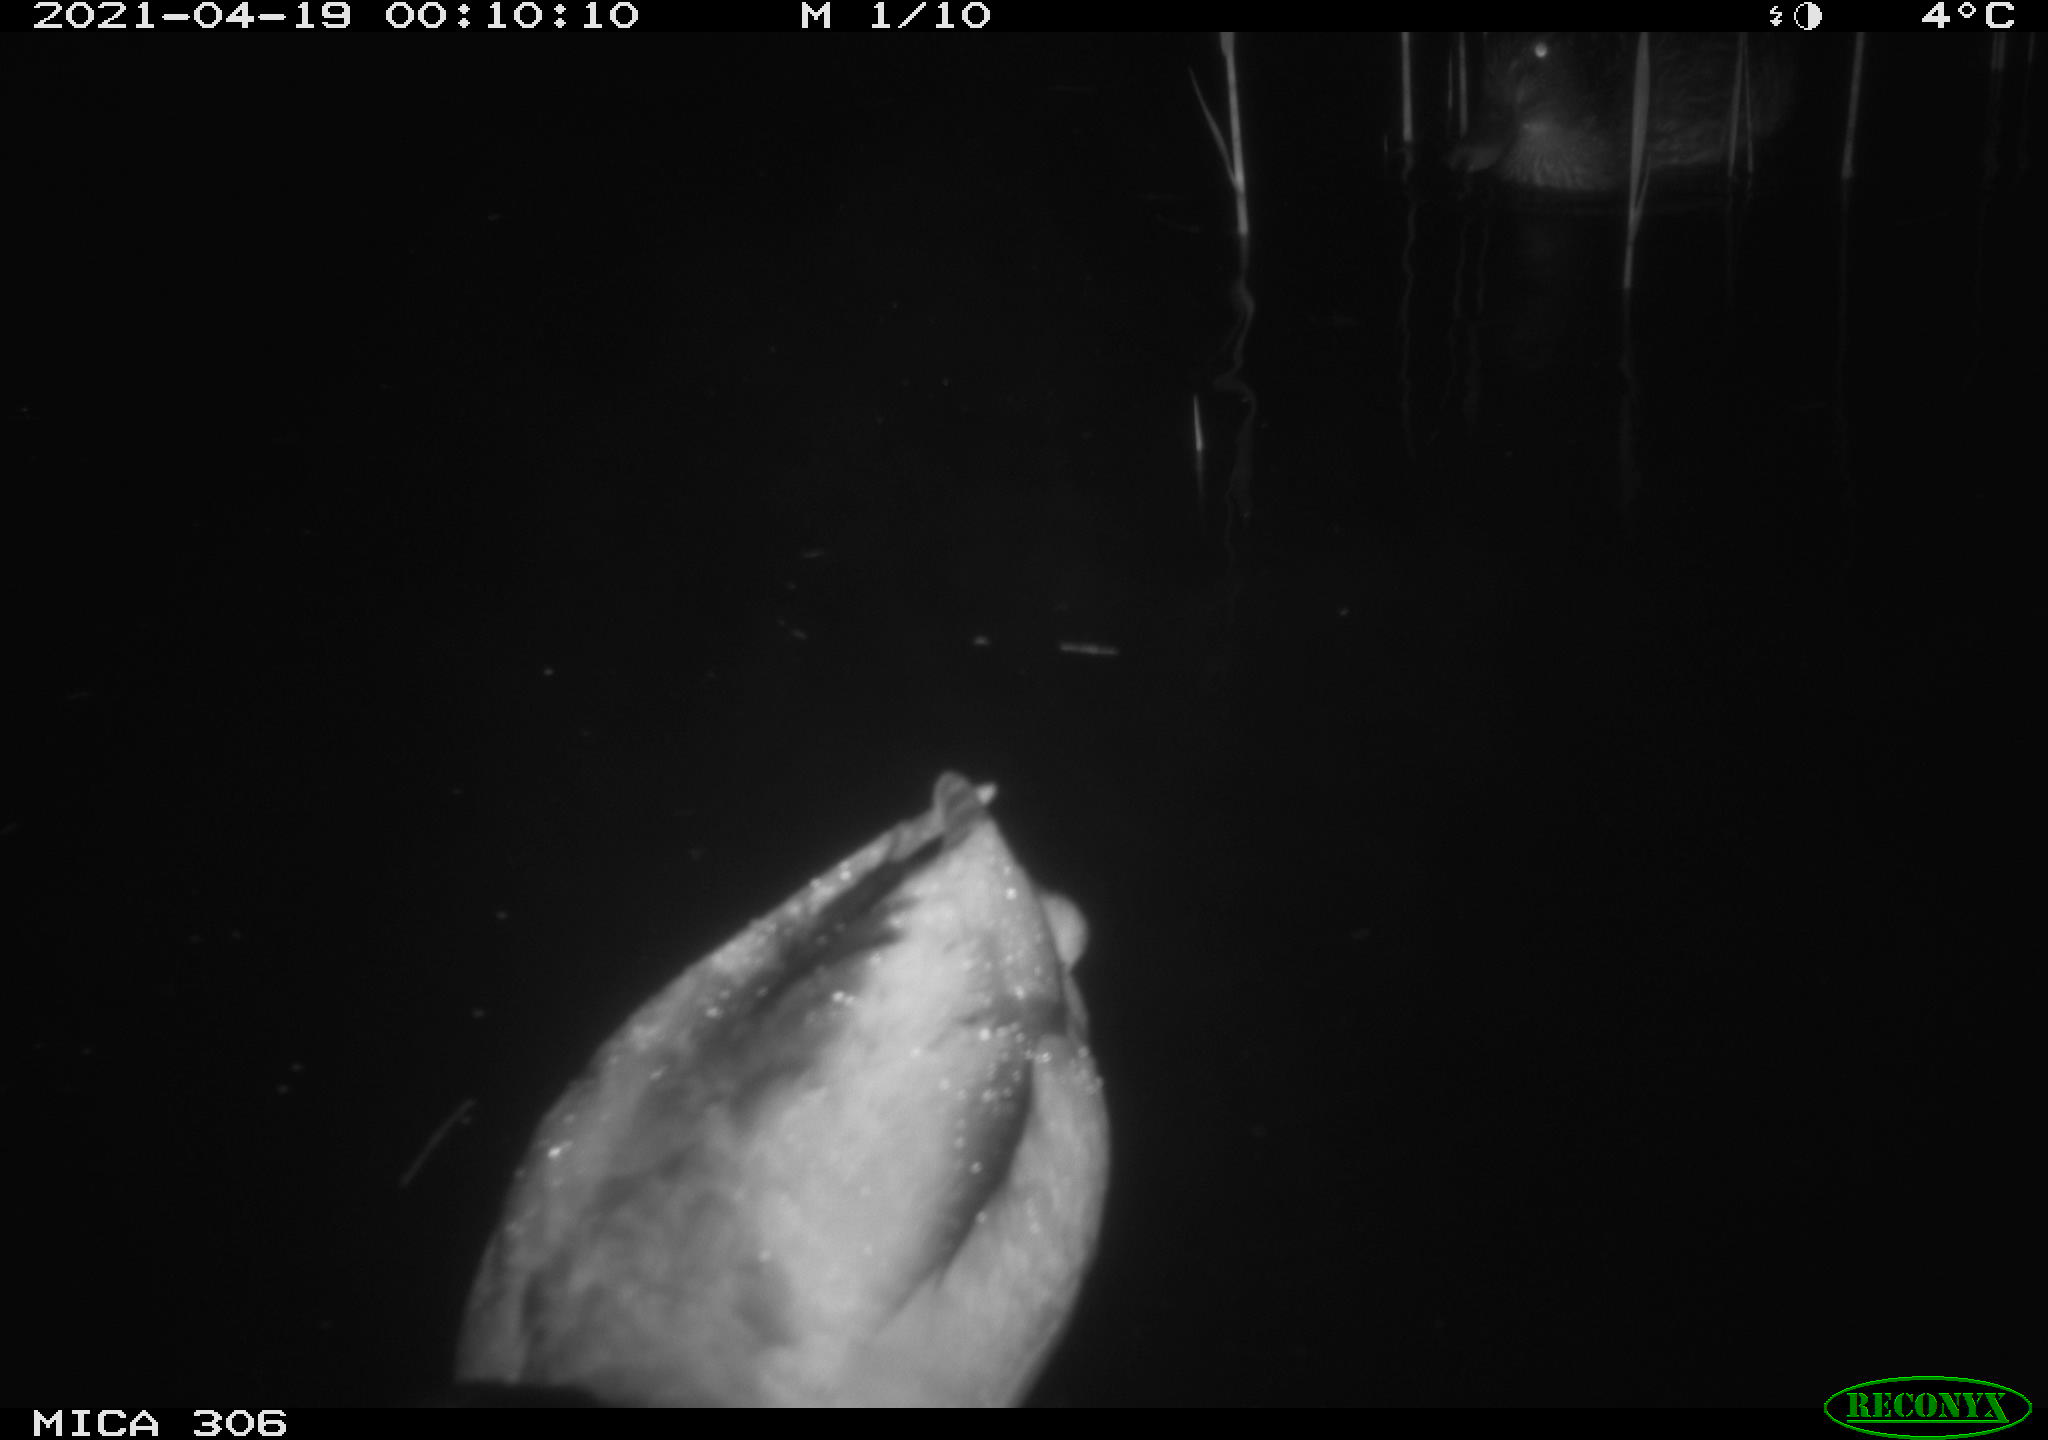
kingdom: Animalia
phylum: Chordata
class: Aves
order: Anseriformes
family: Anatidae
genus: Anas
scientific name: Anas platyrhynchos
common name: Mallard
